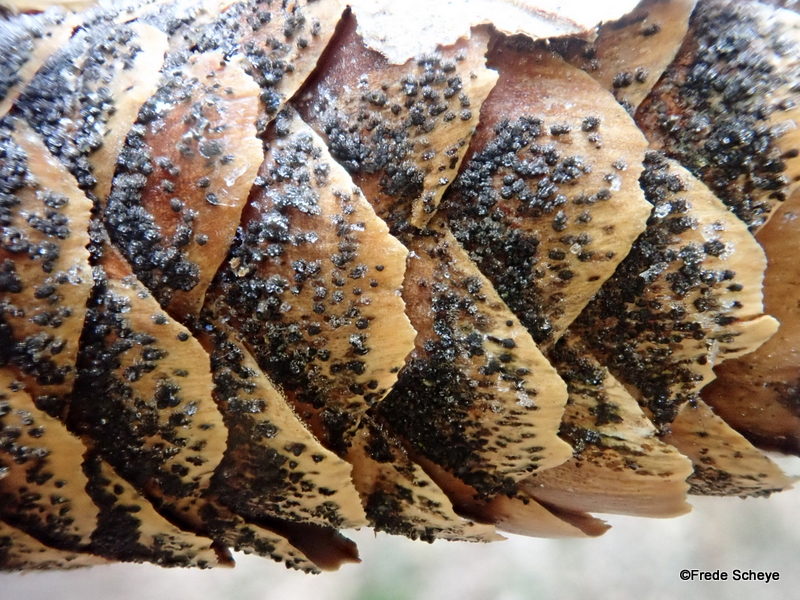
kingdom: Fungi
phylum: Ascomycota
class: Sordariomycetes
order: Diaporthales
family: Gnomoniaceae
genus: Sirococcus
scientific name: Sirococcus conigenus
